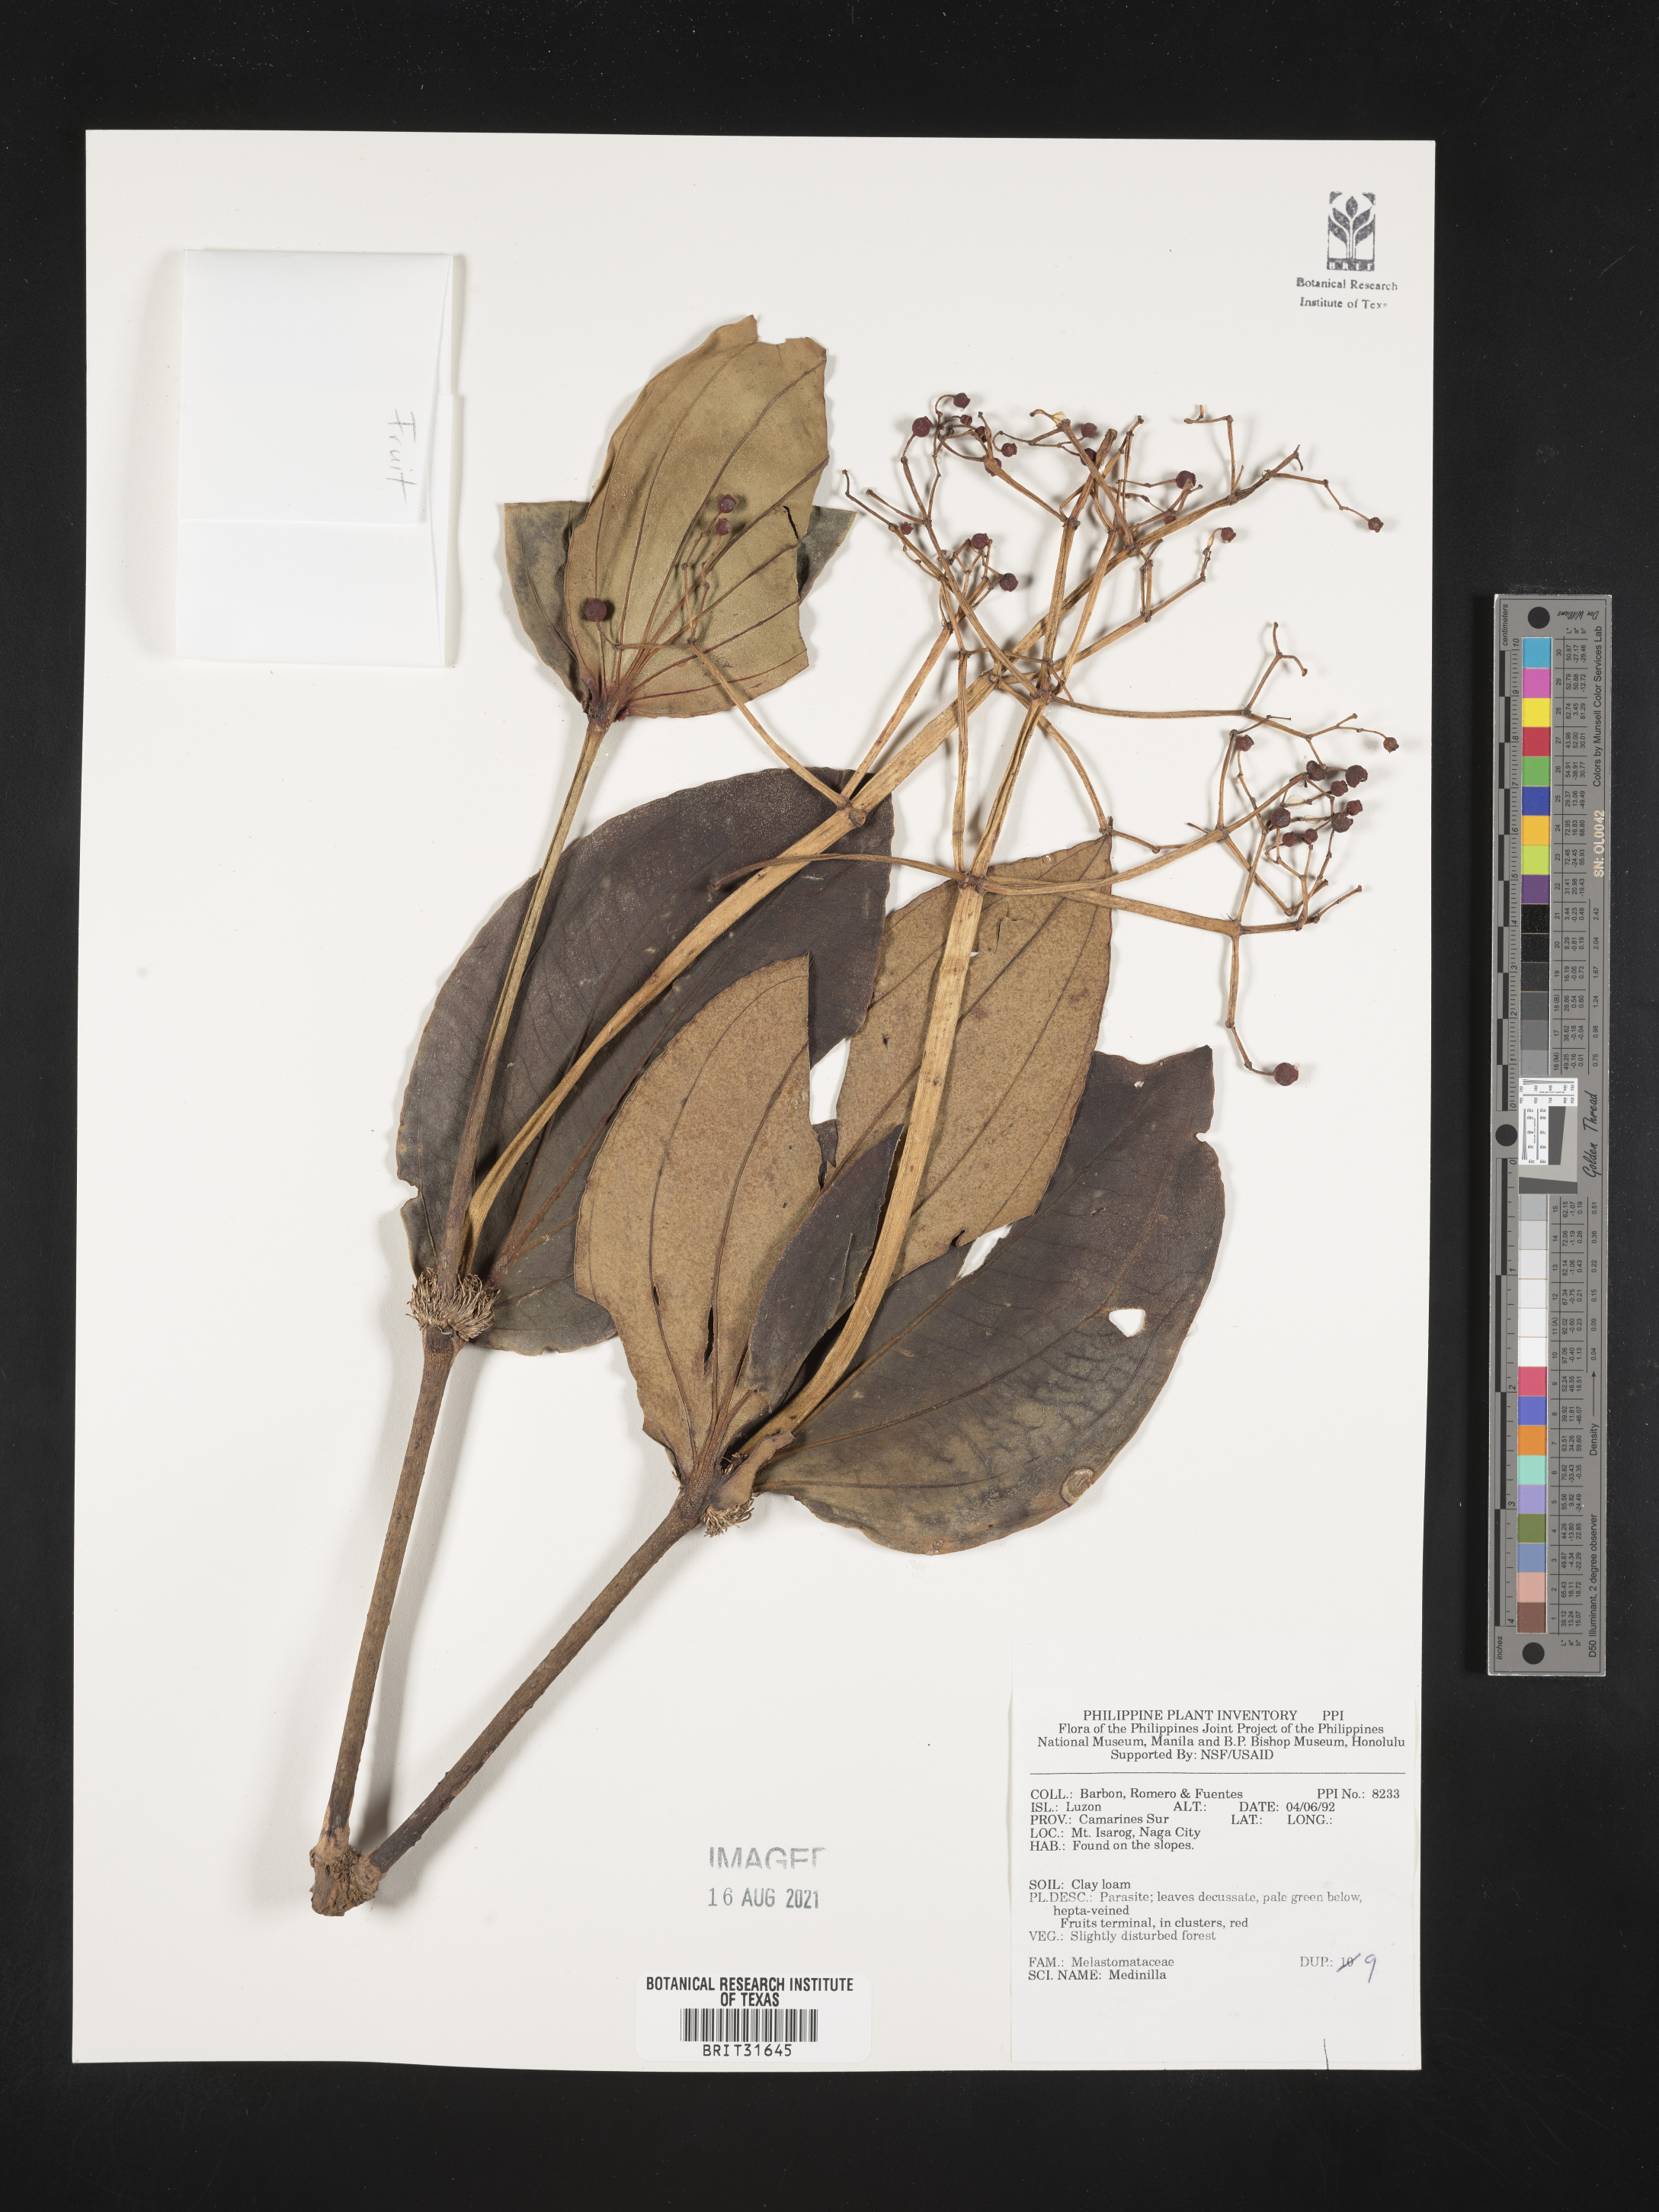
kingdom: Plantae
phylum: Tracheophyta
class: Magnoliopsida
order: Myrtales
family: Melastomataceae
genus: Medinilla
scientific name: Medinilla
